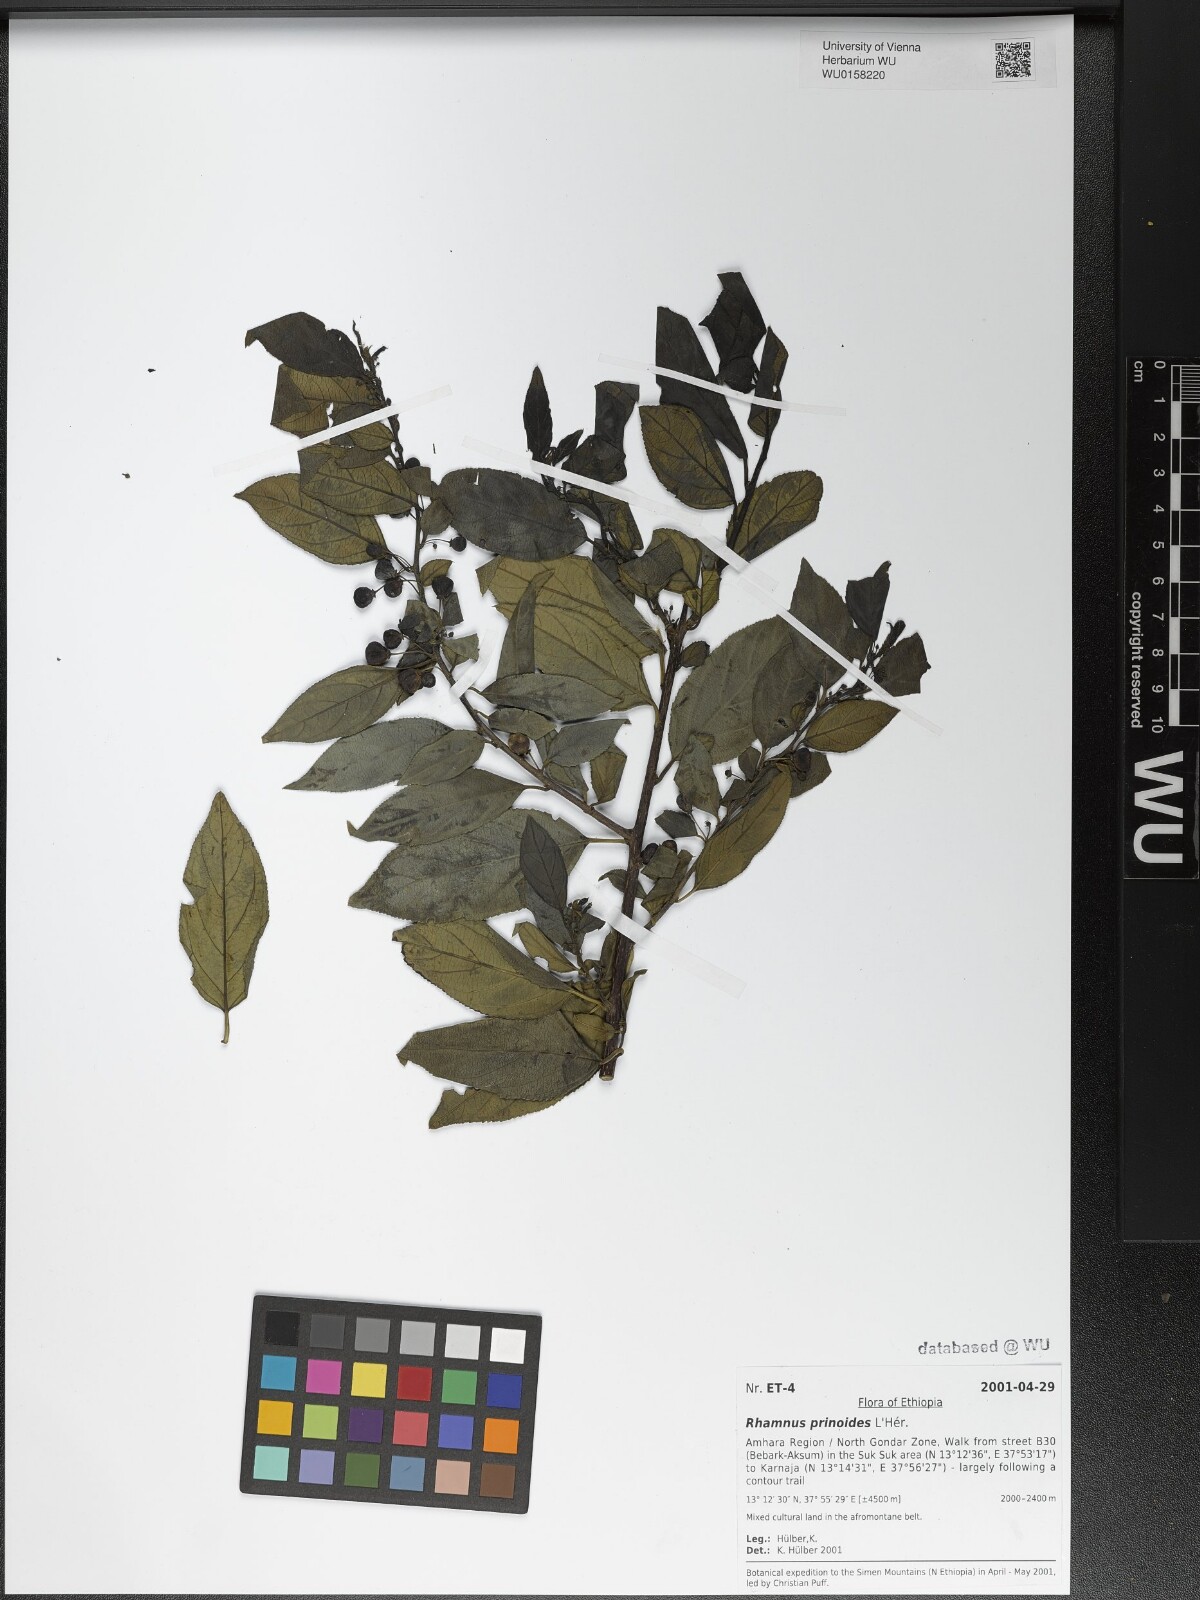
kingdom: Plantae
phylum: Tracheophyta
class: Magnoliopsida
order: Rosales
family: Rhamnaceae
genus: Rhamnus
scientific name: Rhamnus prinoides
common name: Dogwood
